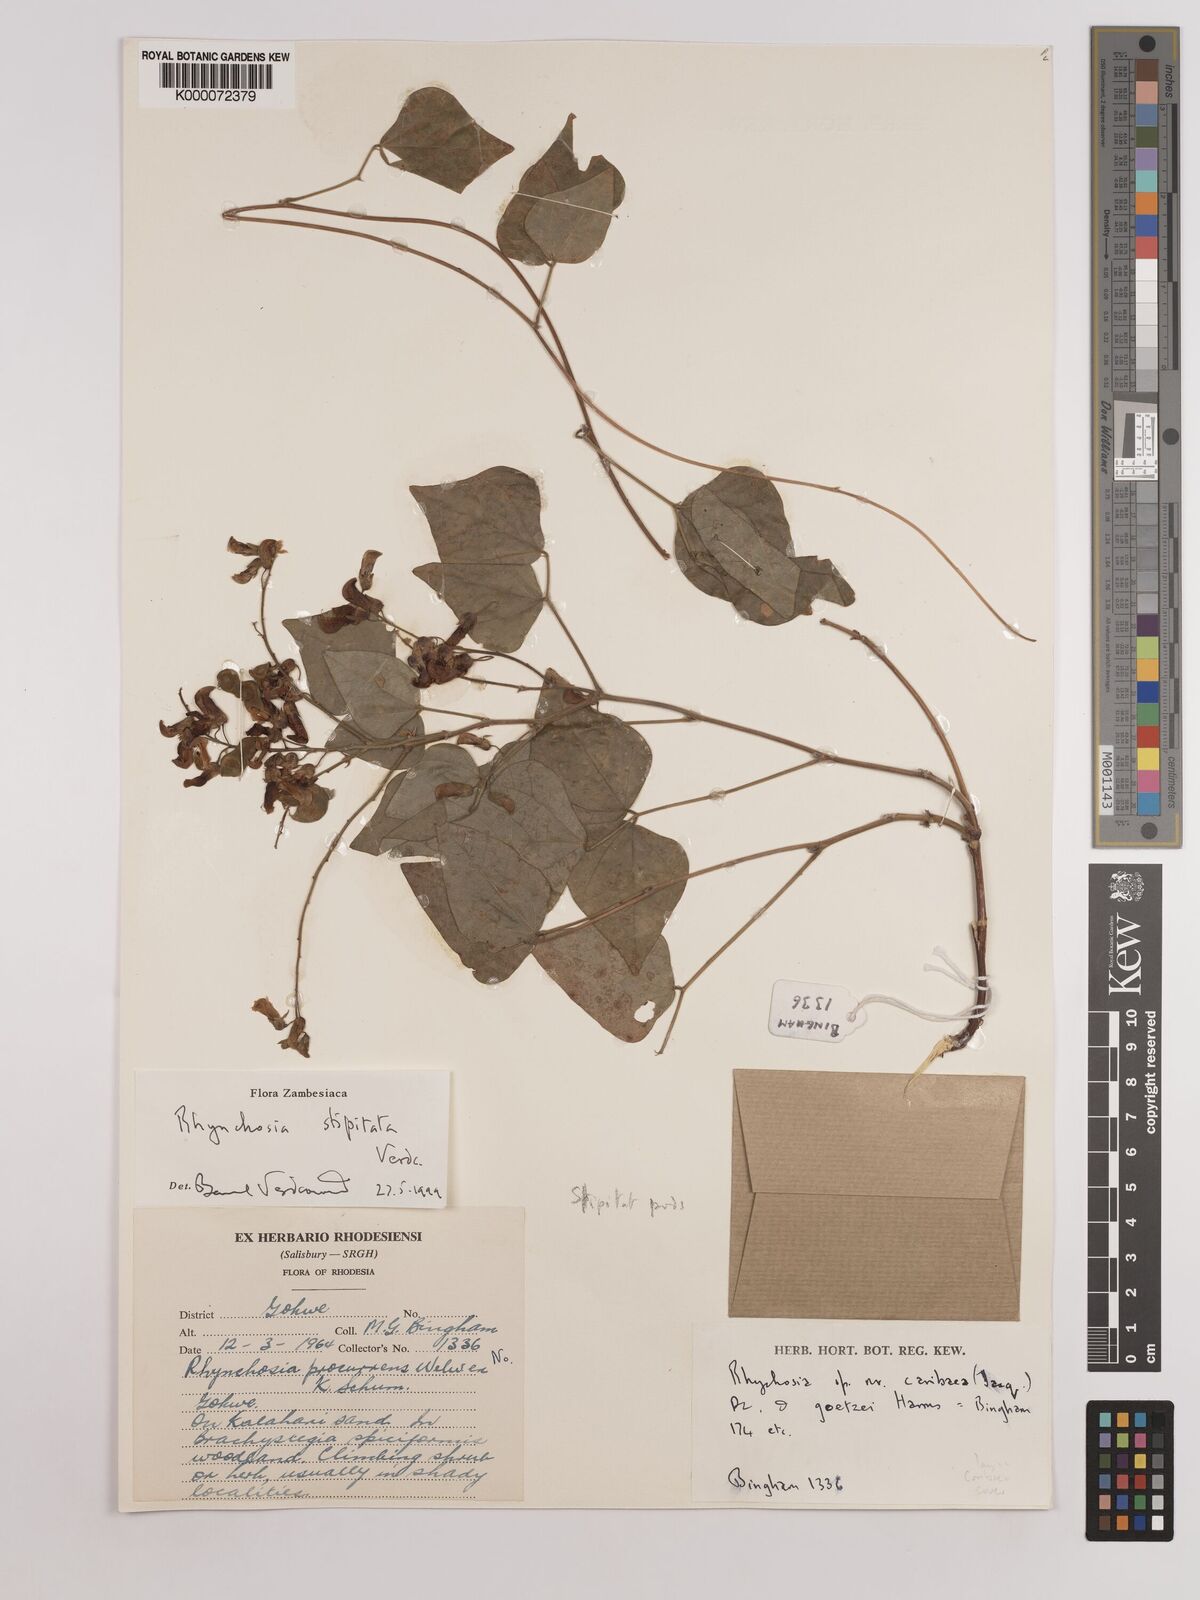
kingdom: Plantae
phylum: Tracheophyta
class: Magnoliopsida
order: Fabales
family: Fabaceae
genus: Rhynchosia
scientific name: Rhynchosia stipitata
